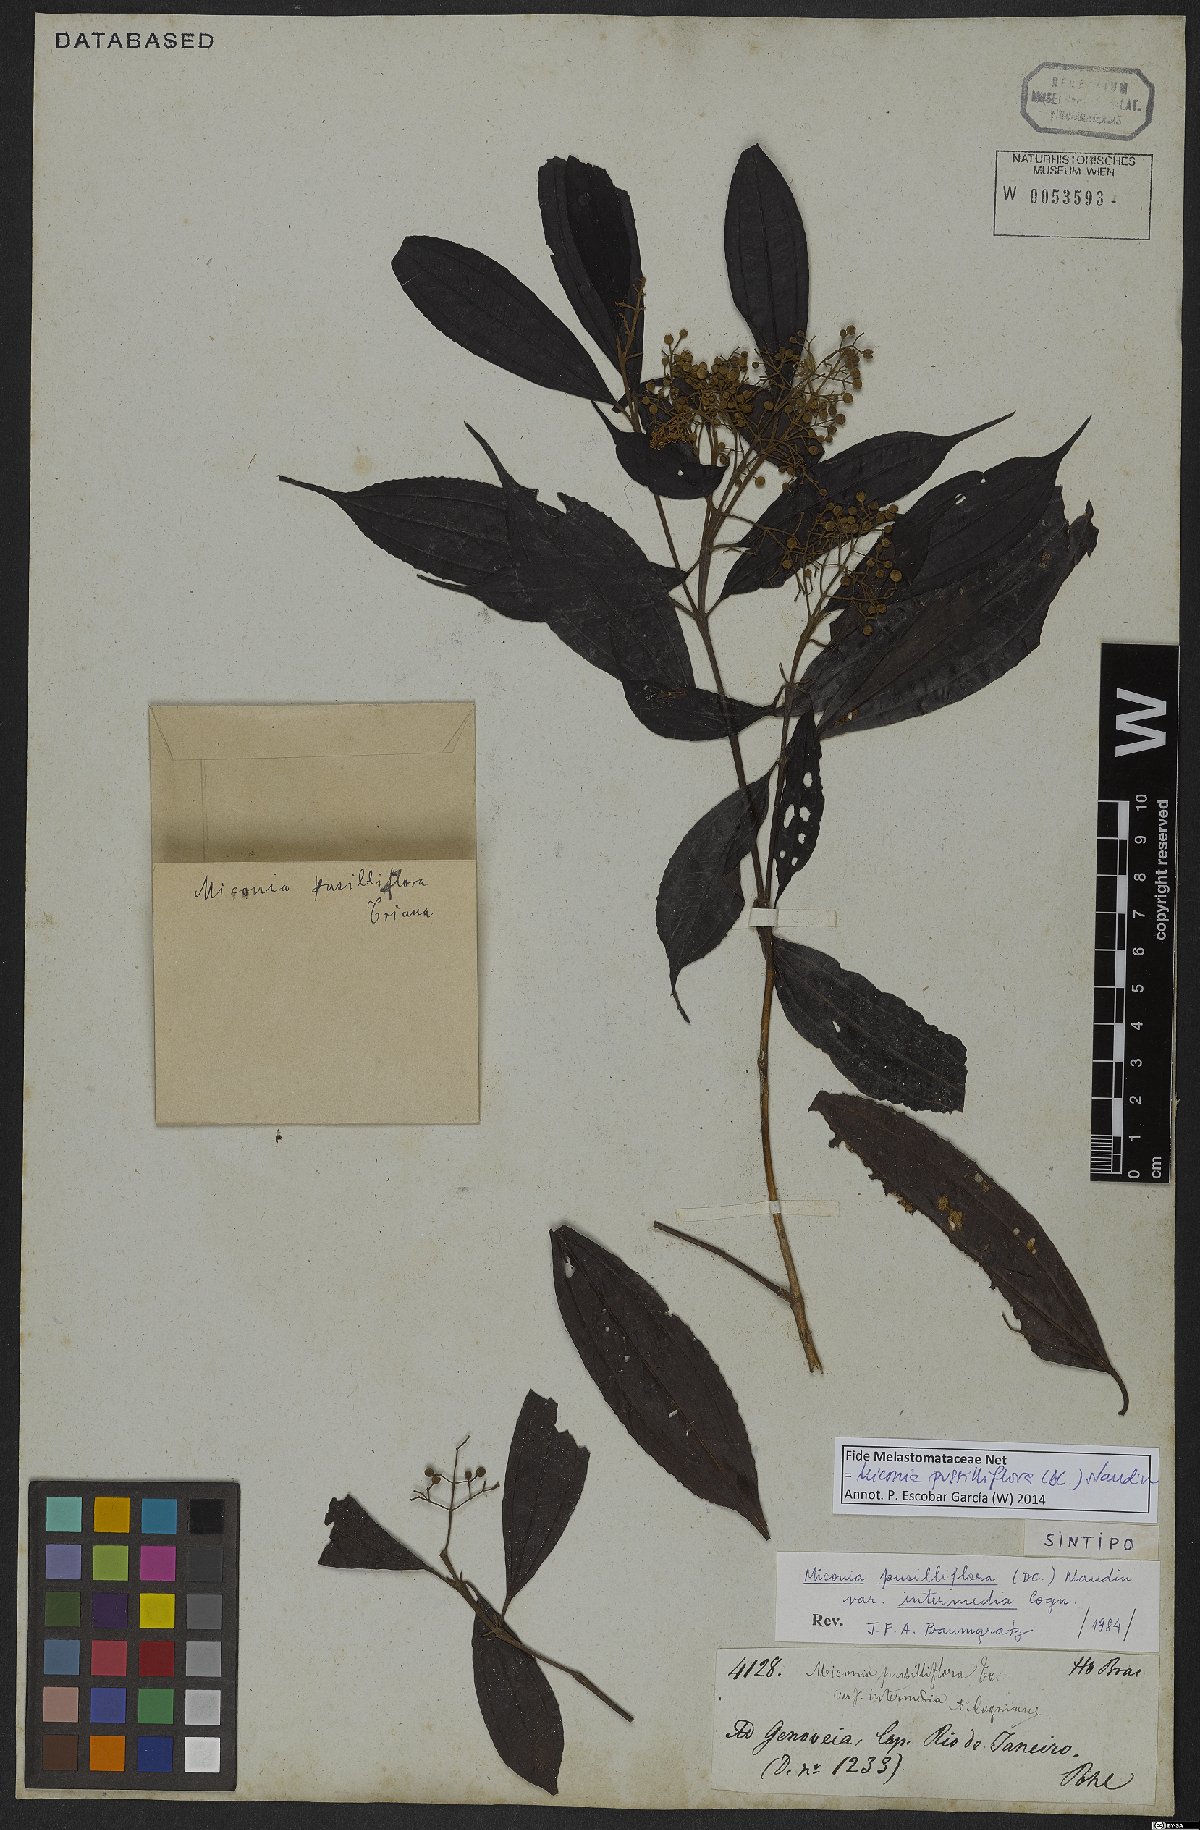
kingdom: Plantae
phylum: Tracheophyta
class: Magnoliopsida
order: Myrtales
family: Melastomataceae
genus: Miconia
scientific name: Miconia pusilliflora
